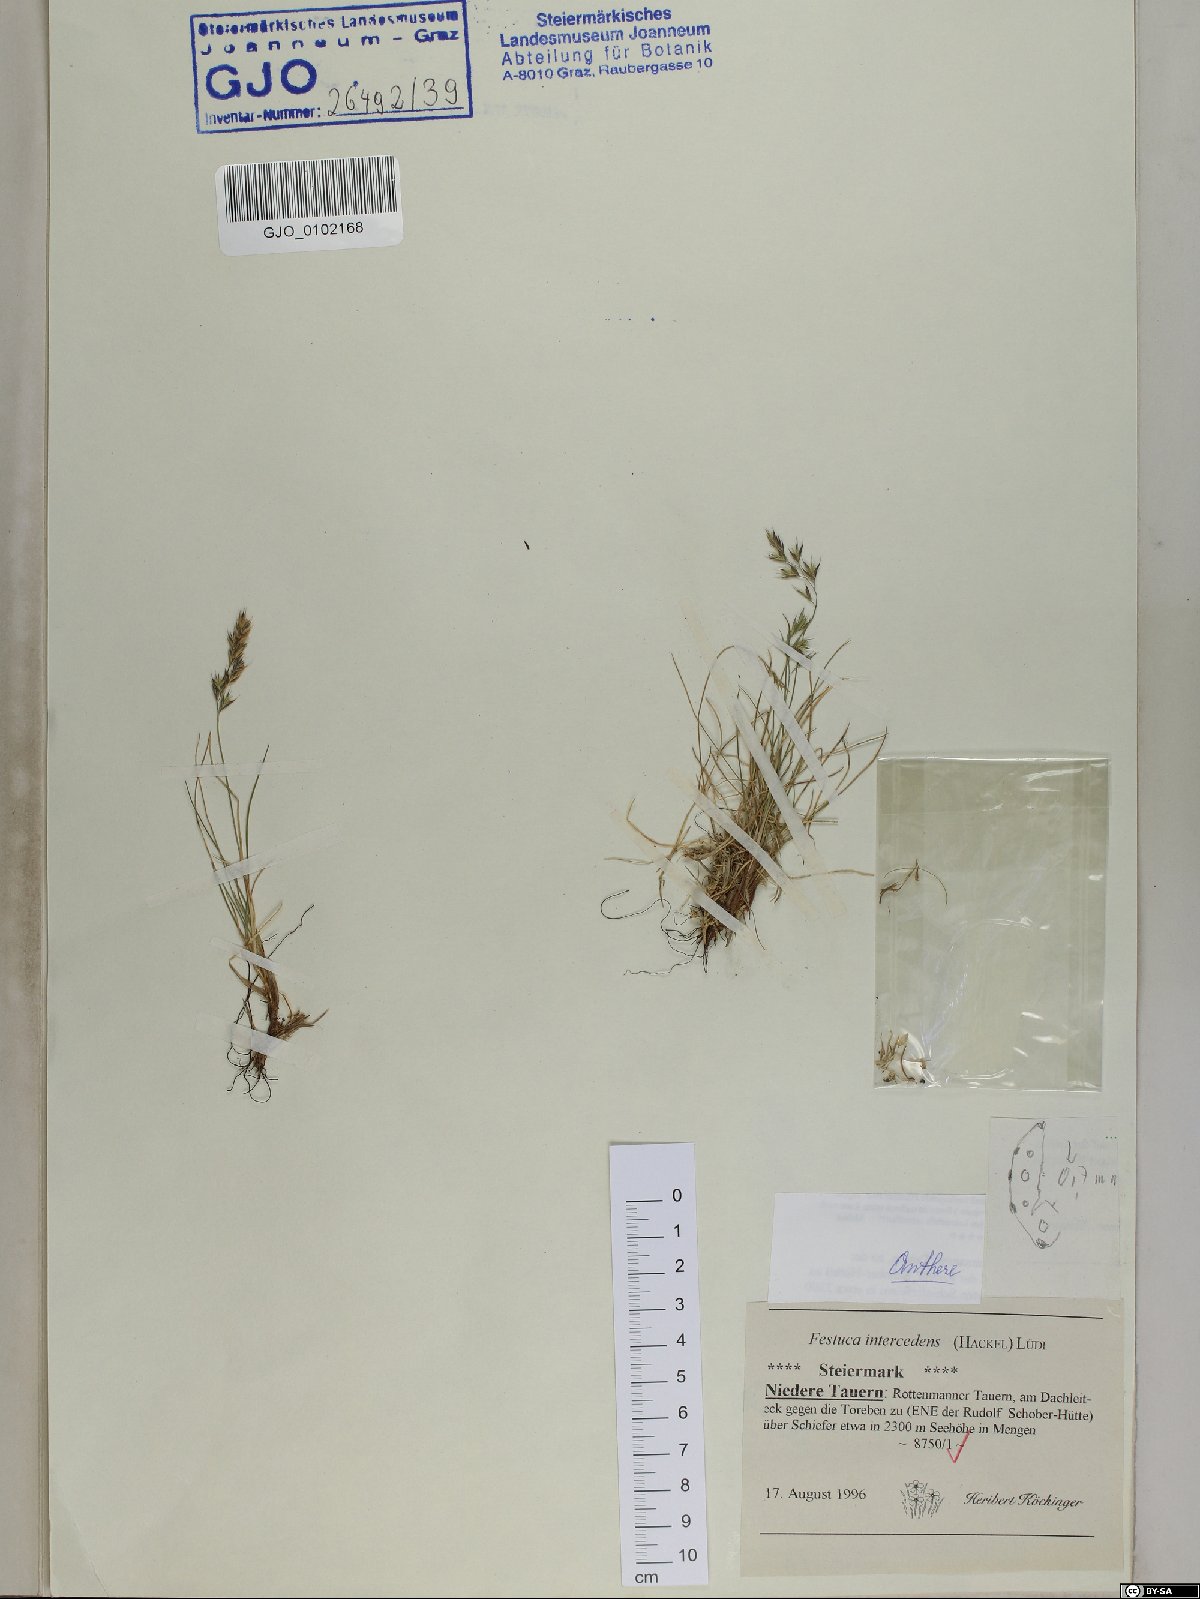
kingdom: Plantae
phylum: Tracheophyta
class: Liliopsida
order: Poales
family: Poaceae
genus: Festuca
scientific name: Festuca intercedens
